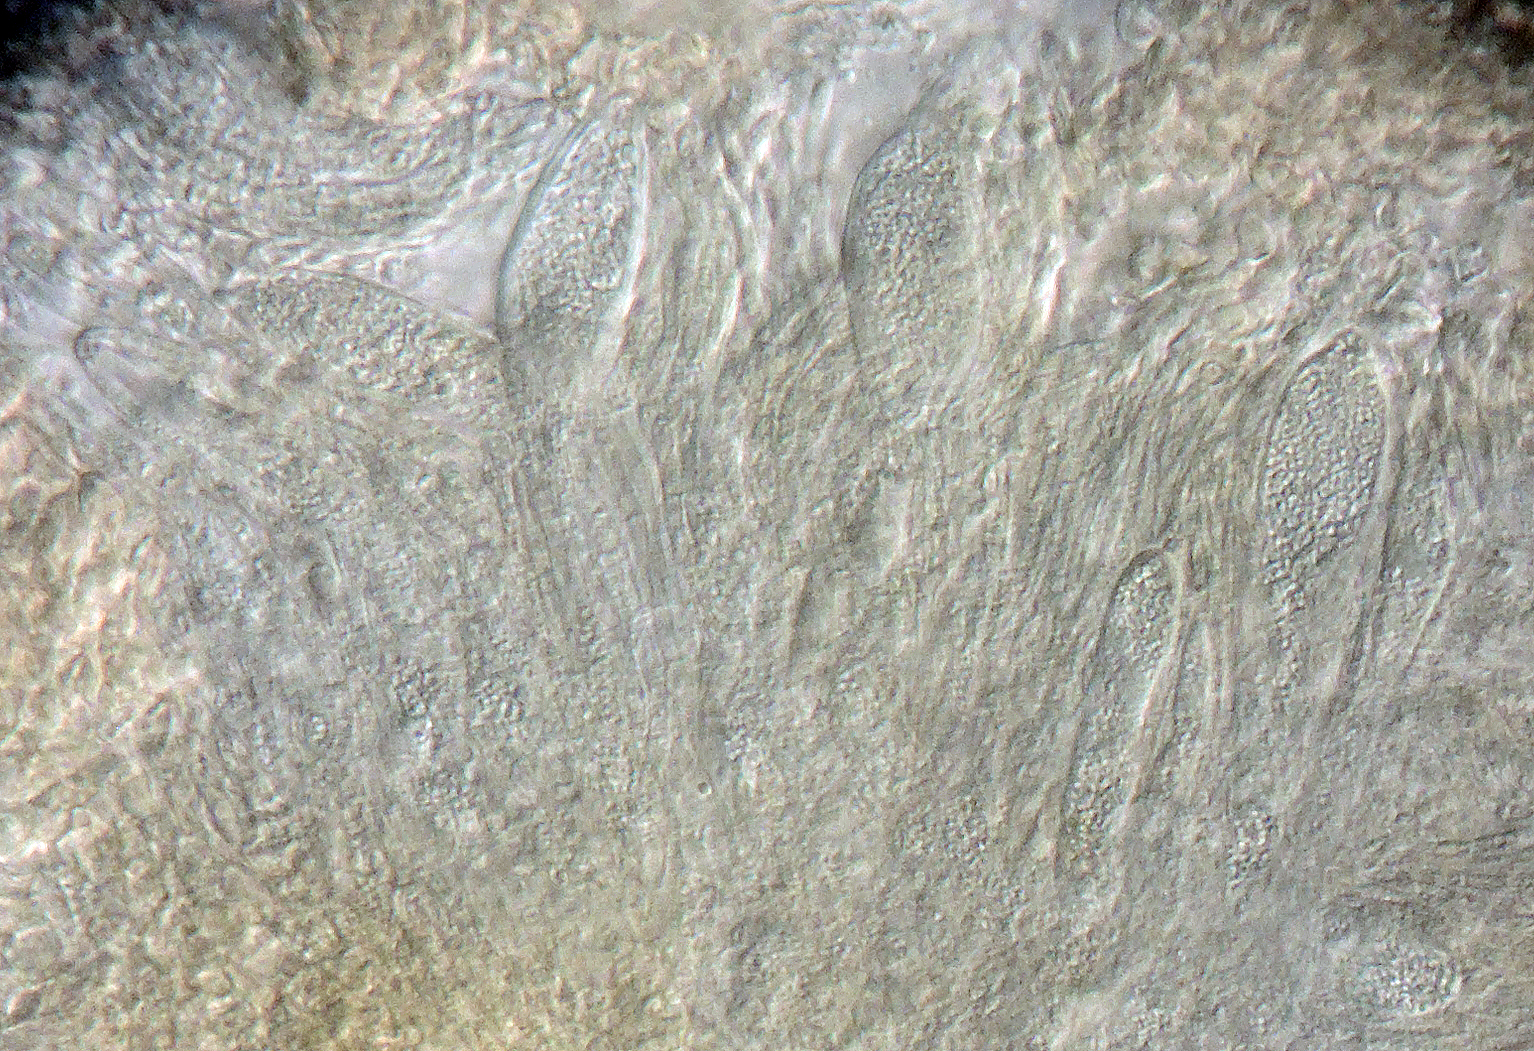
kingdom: Fungi
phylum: Ascomycota
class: Leotiomycetes
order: Helotiales
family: Dermateaceae
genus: Pezicula
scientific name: Pezicula cinnamomea
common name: kanel-klyngeskive
